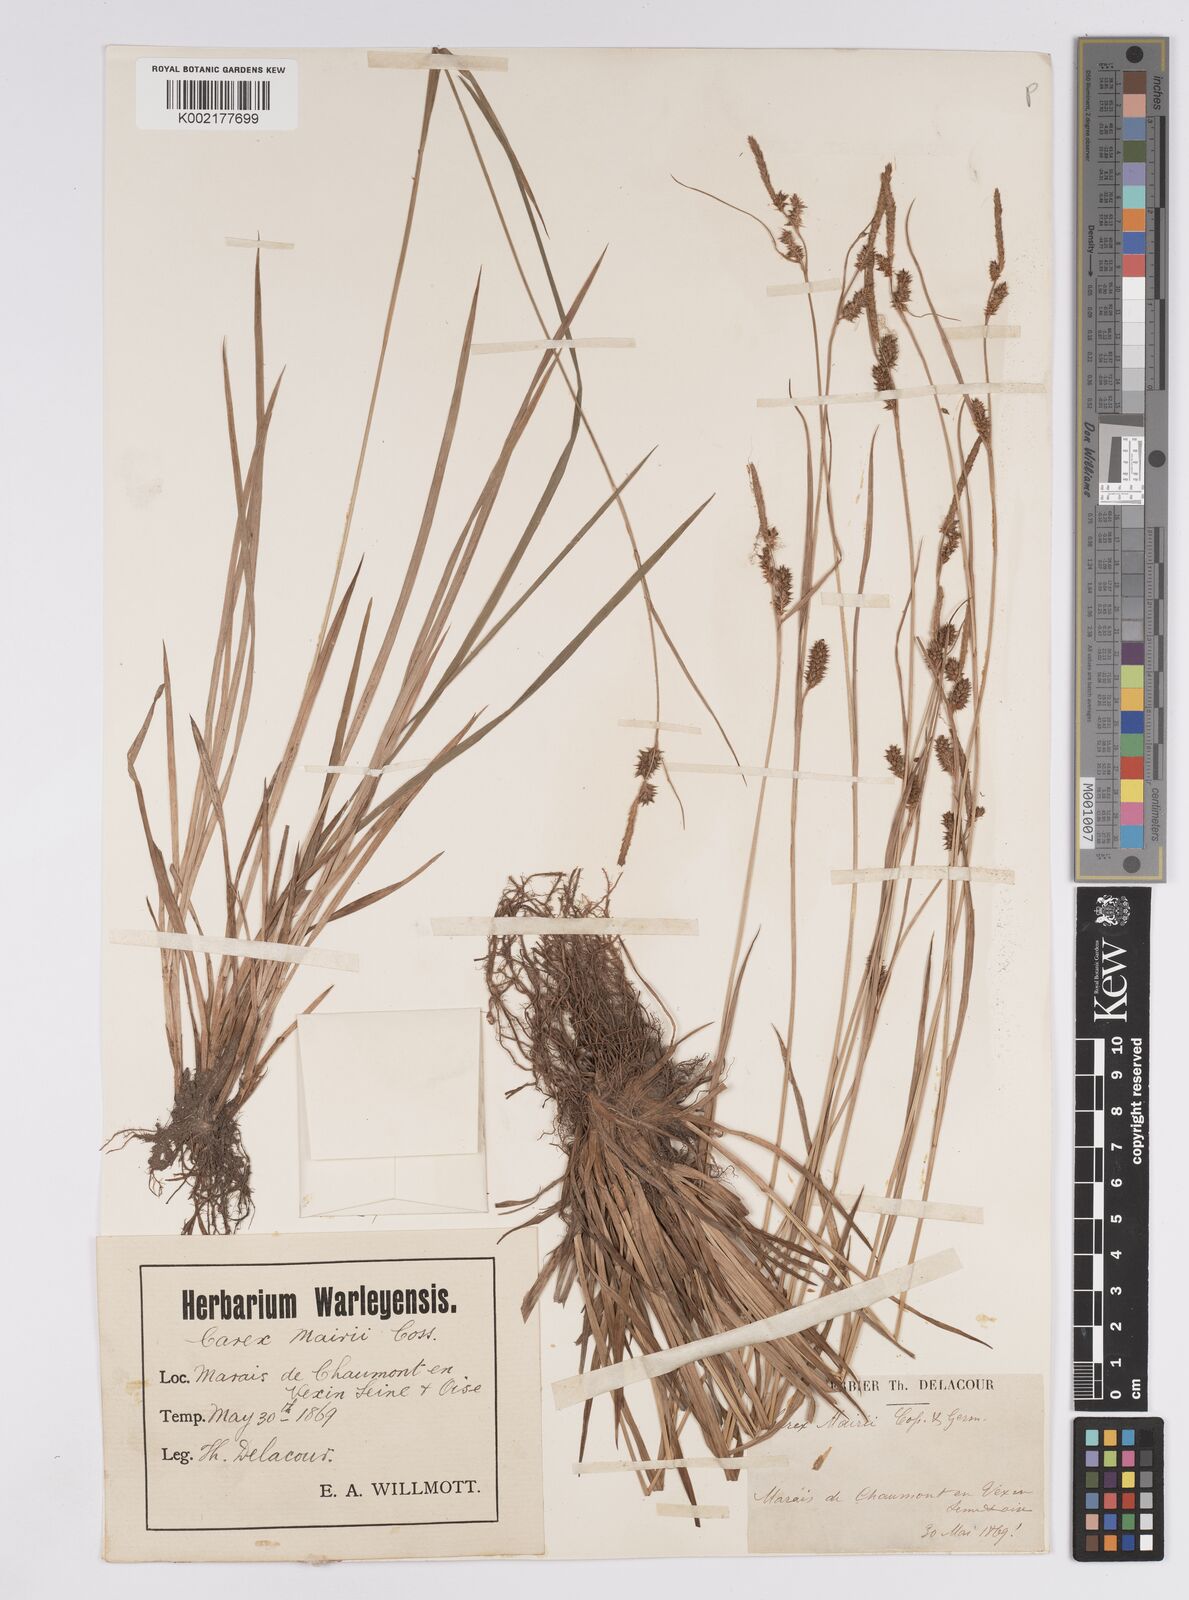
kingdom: Plantae
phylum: Tracheophyta
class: Liliopsida
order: Poales
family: Cyperaceae
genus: Carex
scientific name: Carex mairei
